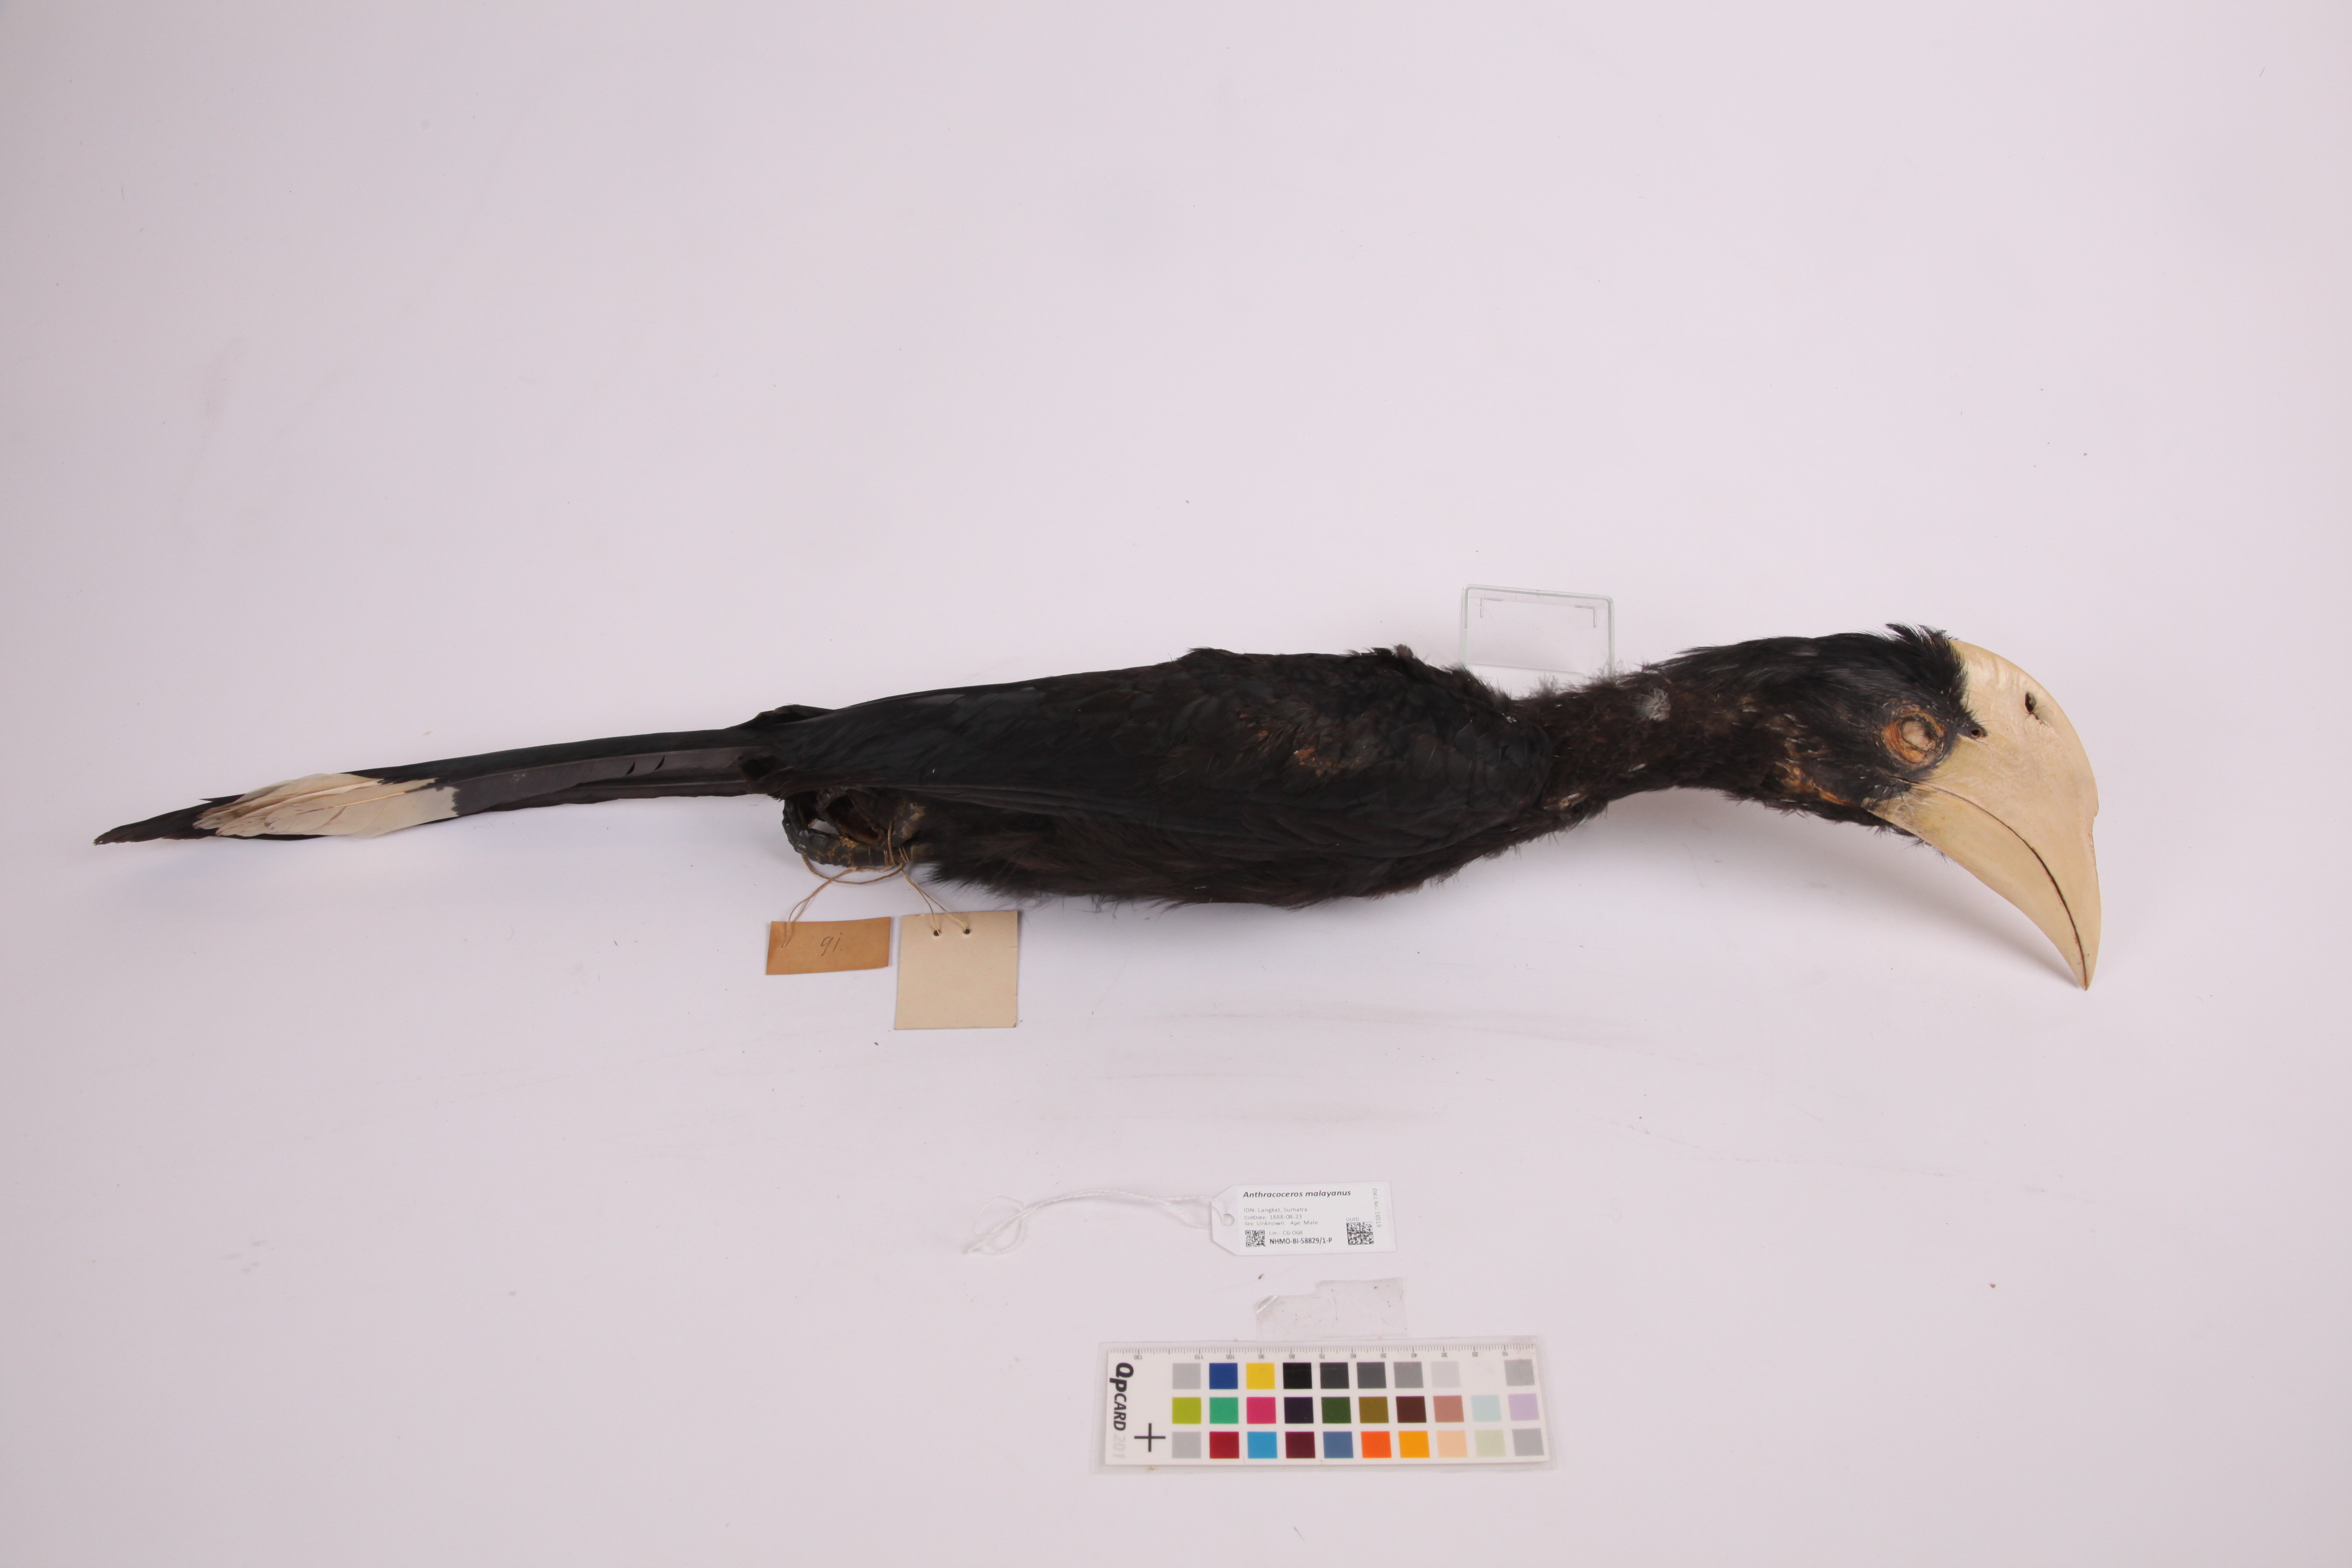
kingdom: Animalia
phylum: Chordata
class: Aves
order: Bucerotiformes
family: Bucerotidae
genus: Anthracoceros
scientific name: Anthracoceros malayanus
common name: Black hornbill
